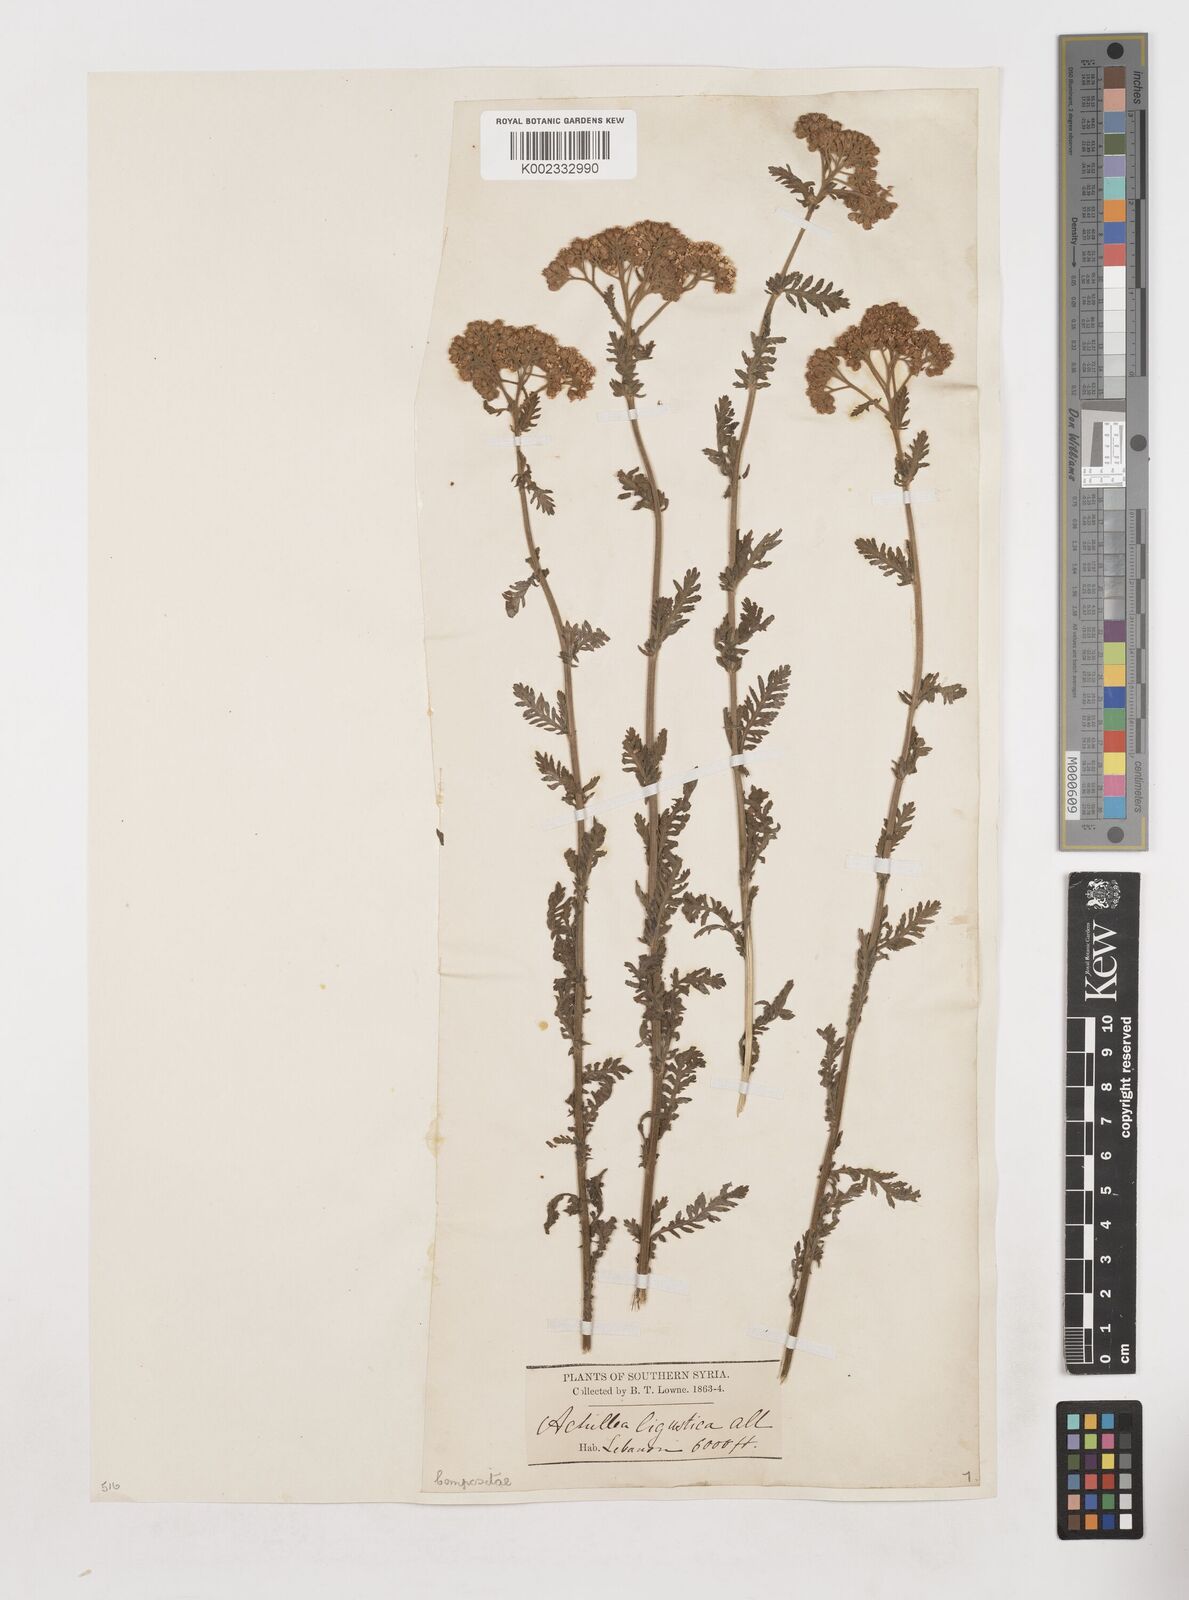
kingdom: Plantae
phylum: Tracheophyta
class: Magnoliopsida
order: Asterales
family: Asteraceae
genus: Achillea
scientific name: Achillea ligustica
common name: Southern yarrow
